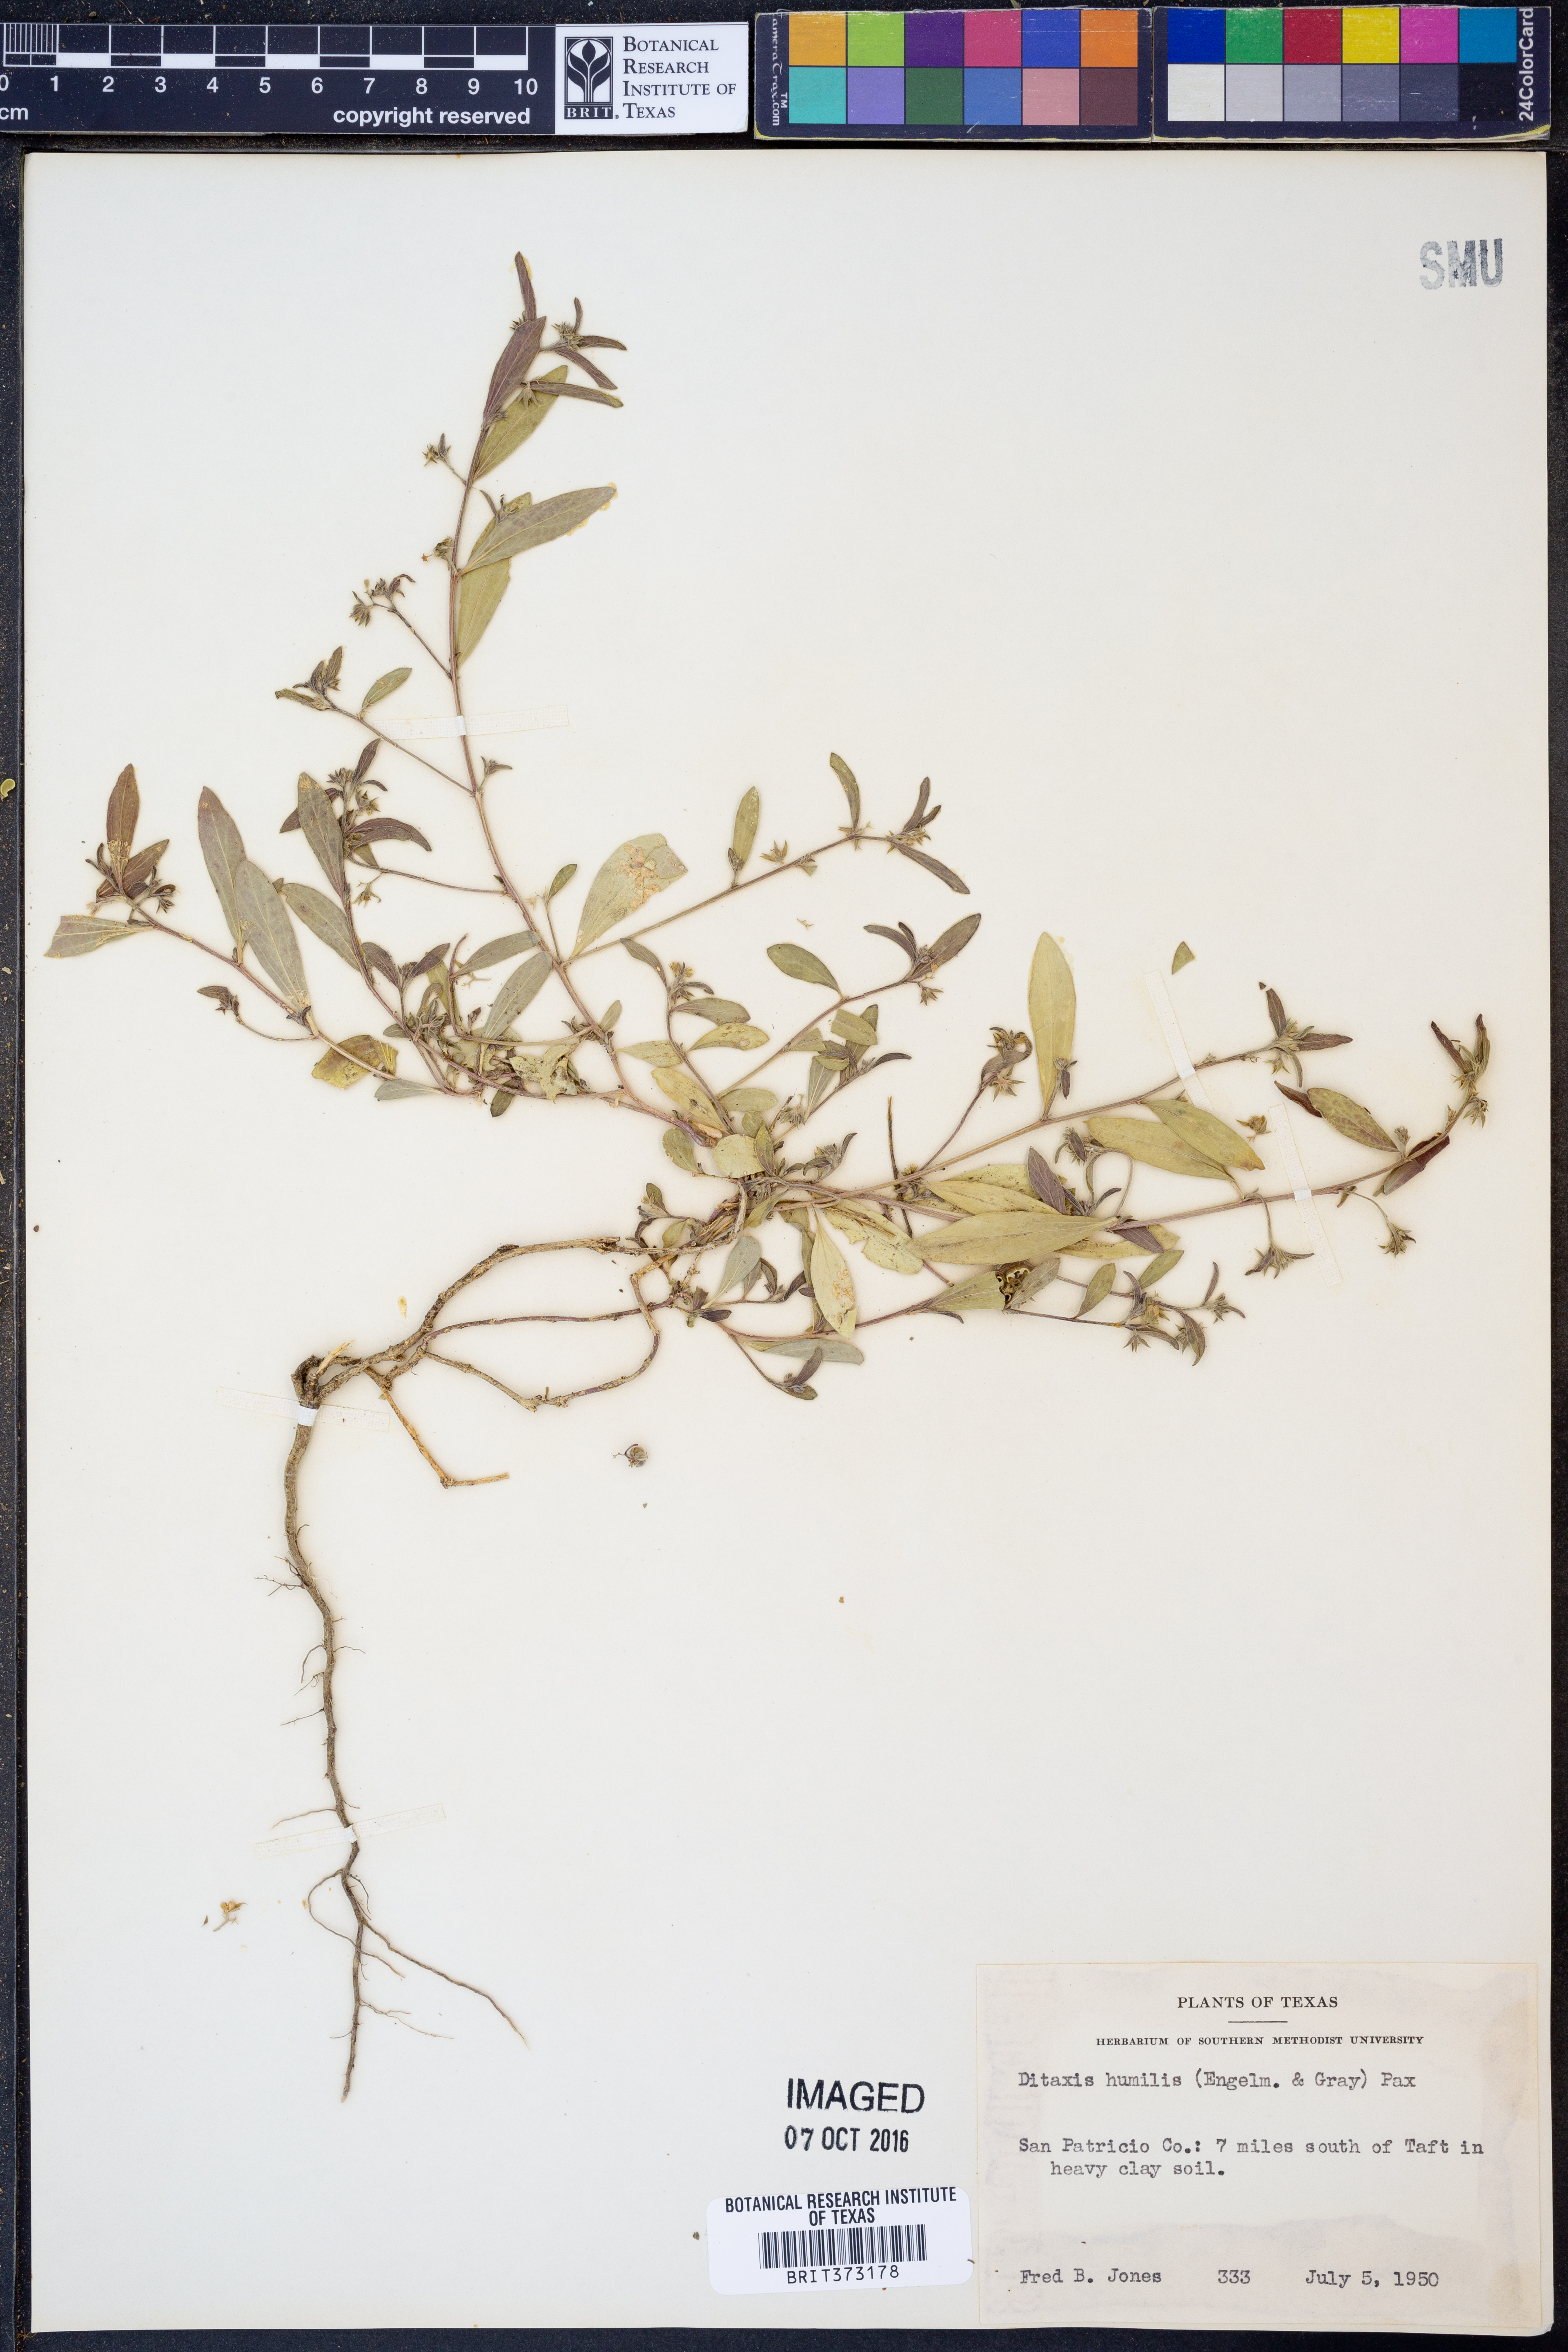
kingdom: Plantae
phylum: Tracheophyta
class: Magnoliopsida
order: Malpighiales
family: Euphorbiaceae
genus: Ditaxis
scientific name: Ditaxis humilis
